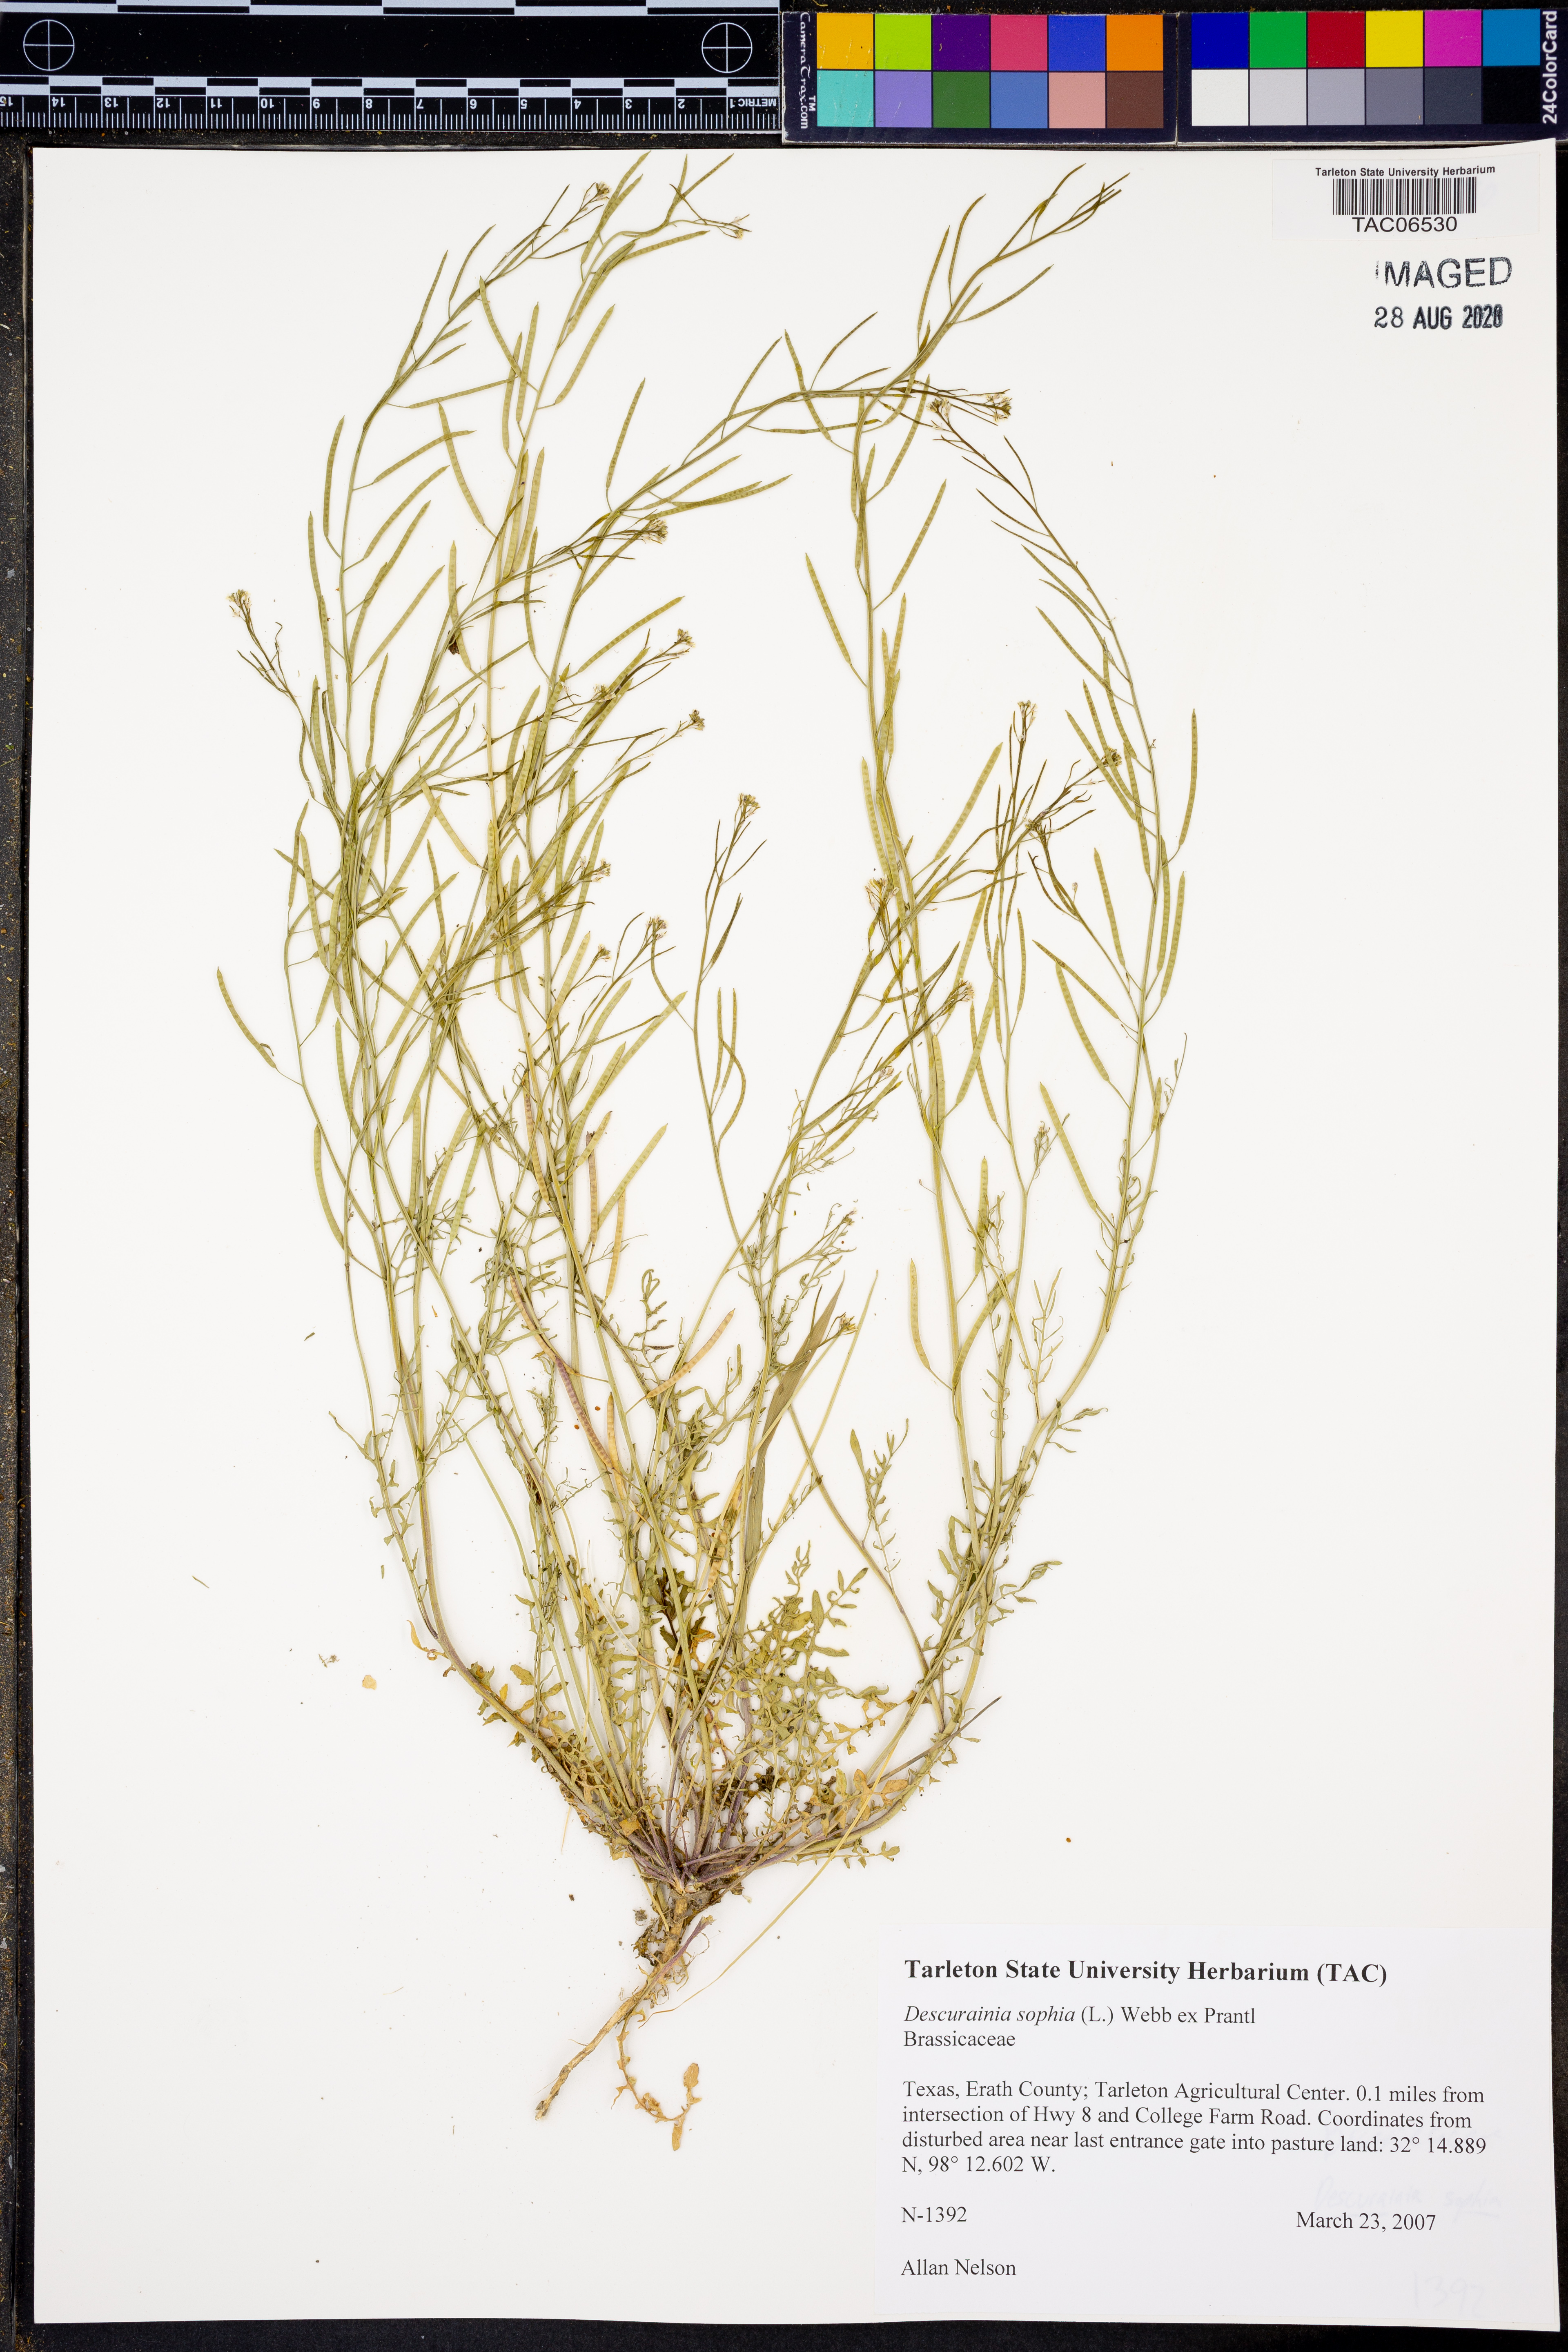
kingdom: Plantae
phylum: Tracheophyta
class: Magnoliopsida
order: Brassicales
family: Brassicaceae
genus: Descurainia
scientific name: Descurainia sophia
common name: Flixweed
